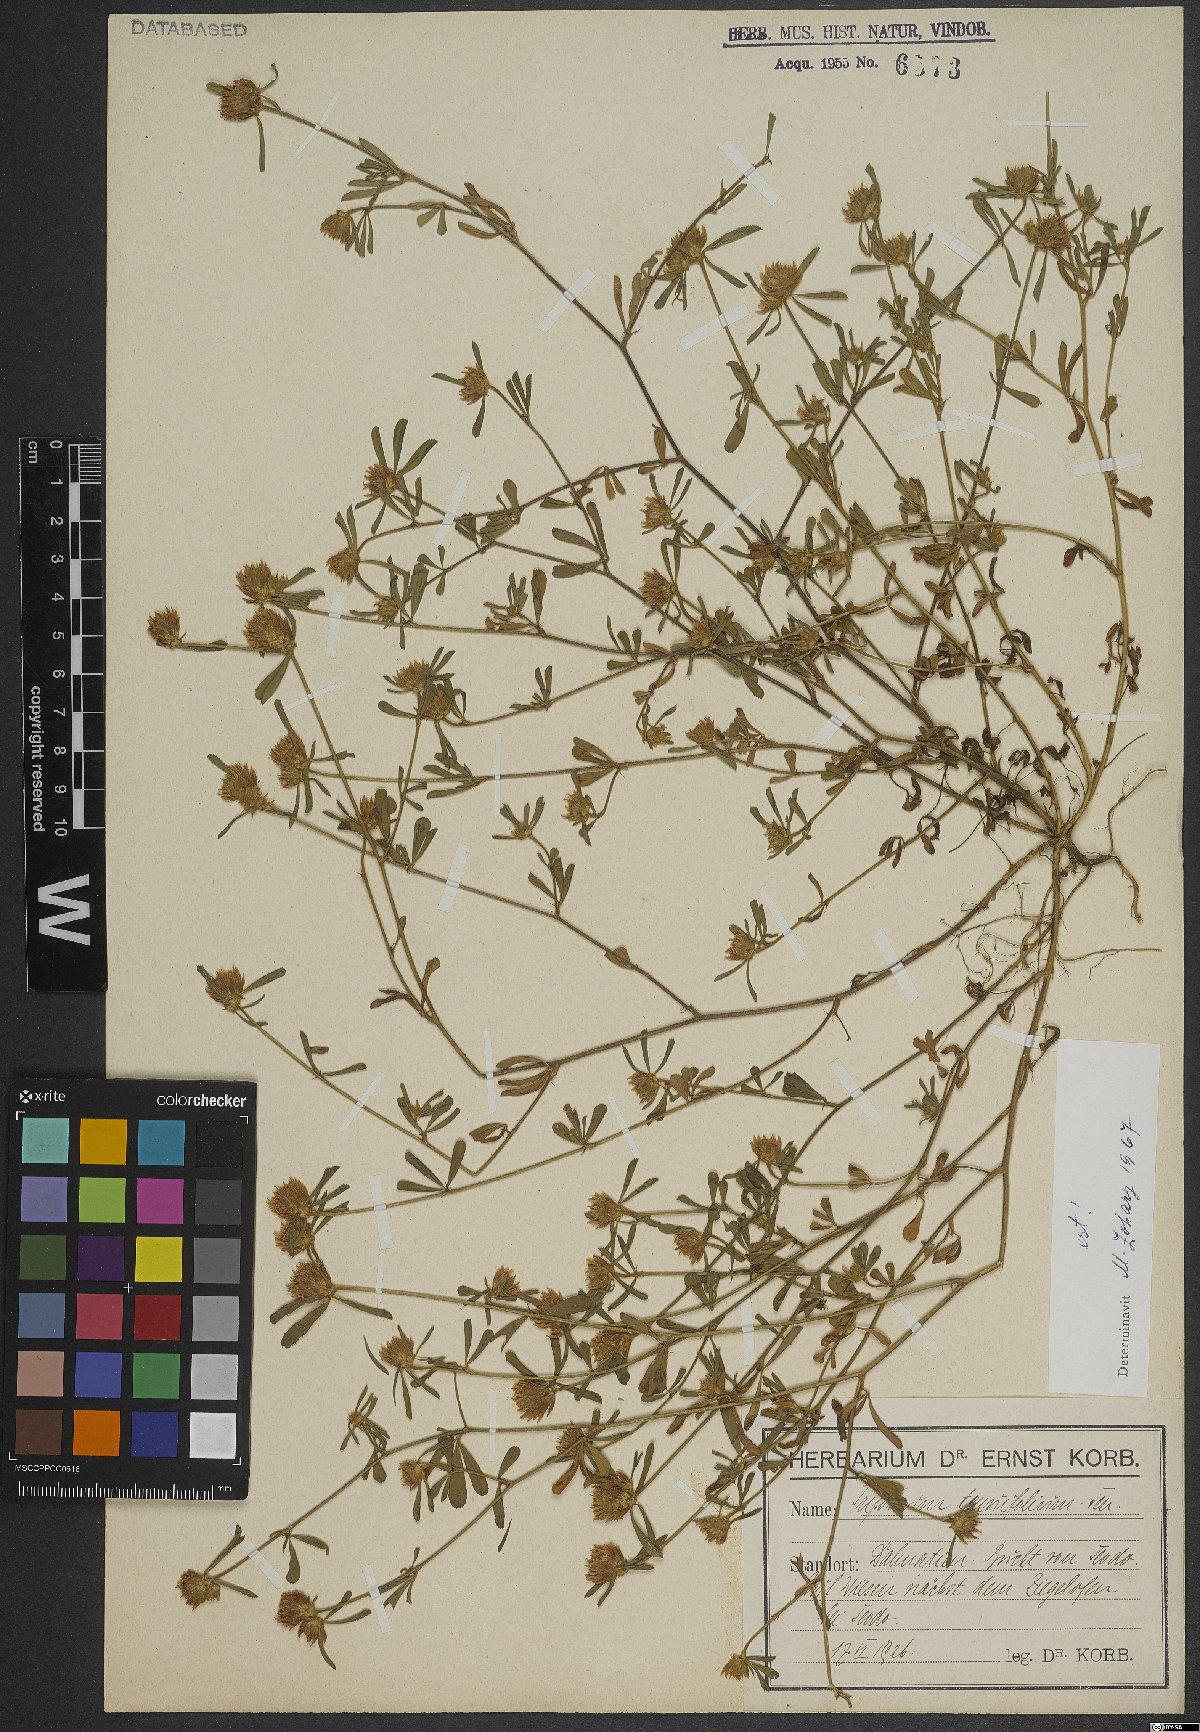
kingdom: Plantae
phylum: Tracheophyta
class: Magnoliopsida
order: Fabales
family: Fabaceae
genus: Trifolium
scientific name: Trifolium tenuifolium
